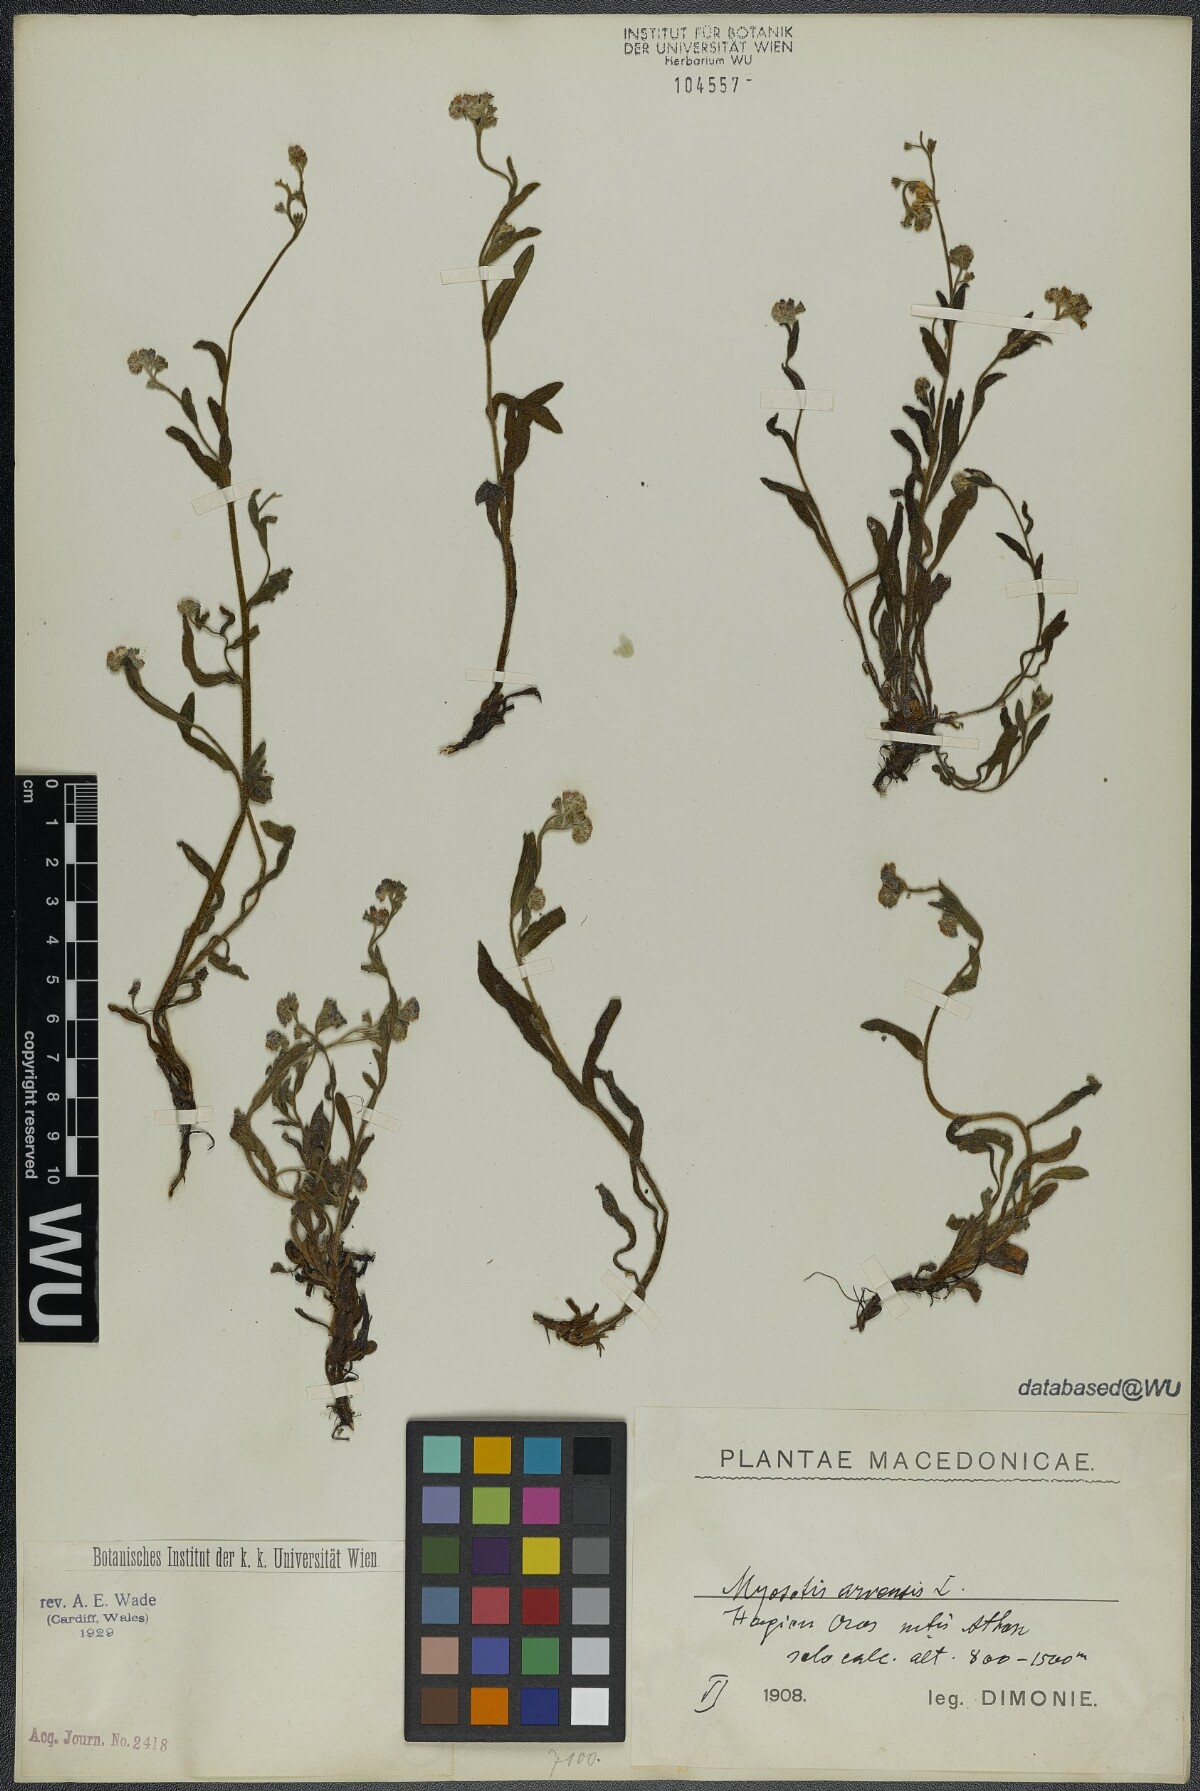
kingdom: Plantae
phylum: Tracheophyta
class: Magnoliopsida
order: Boraginales
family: Boraginaceae
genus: Myosotis
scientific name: Myosotis arvensis
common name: Field forget-me-not
